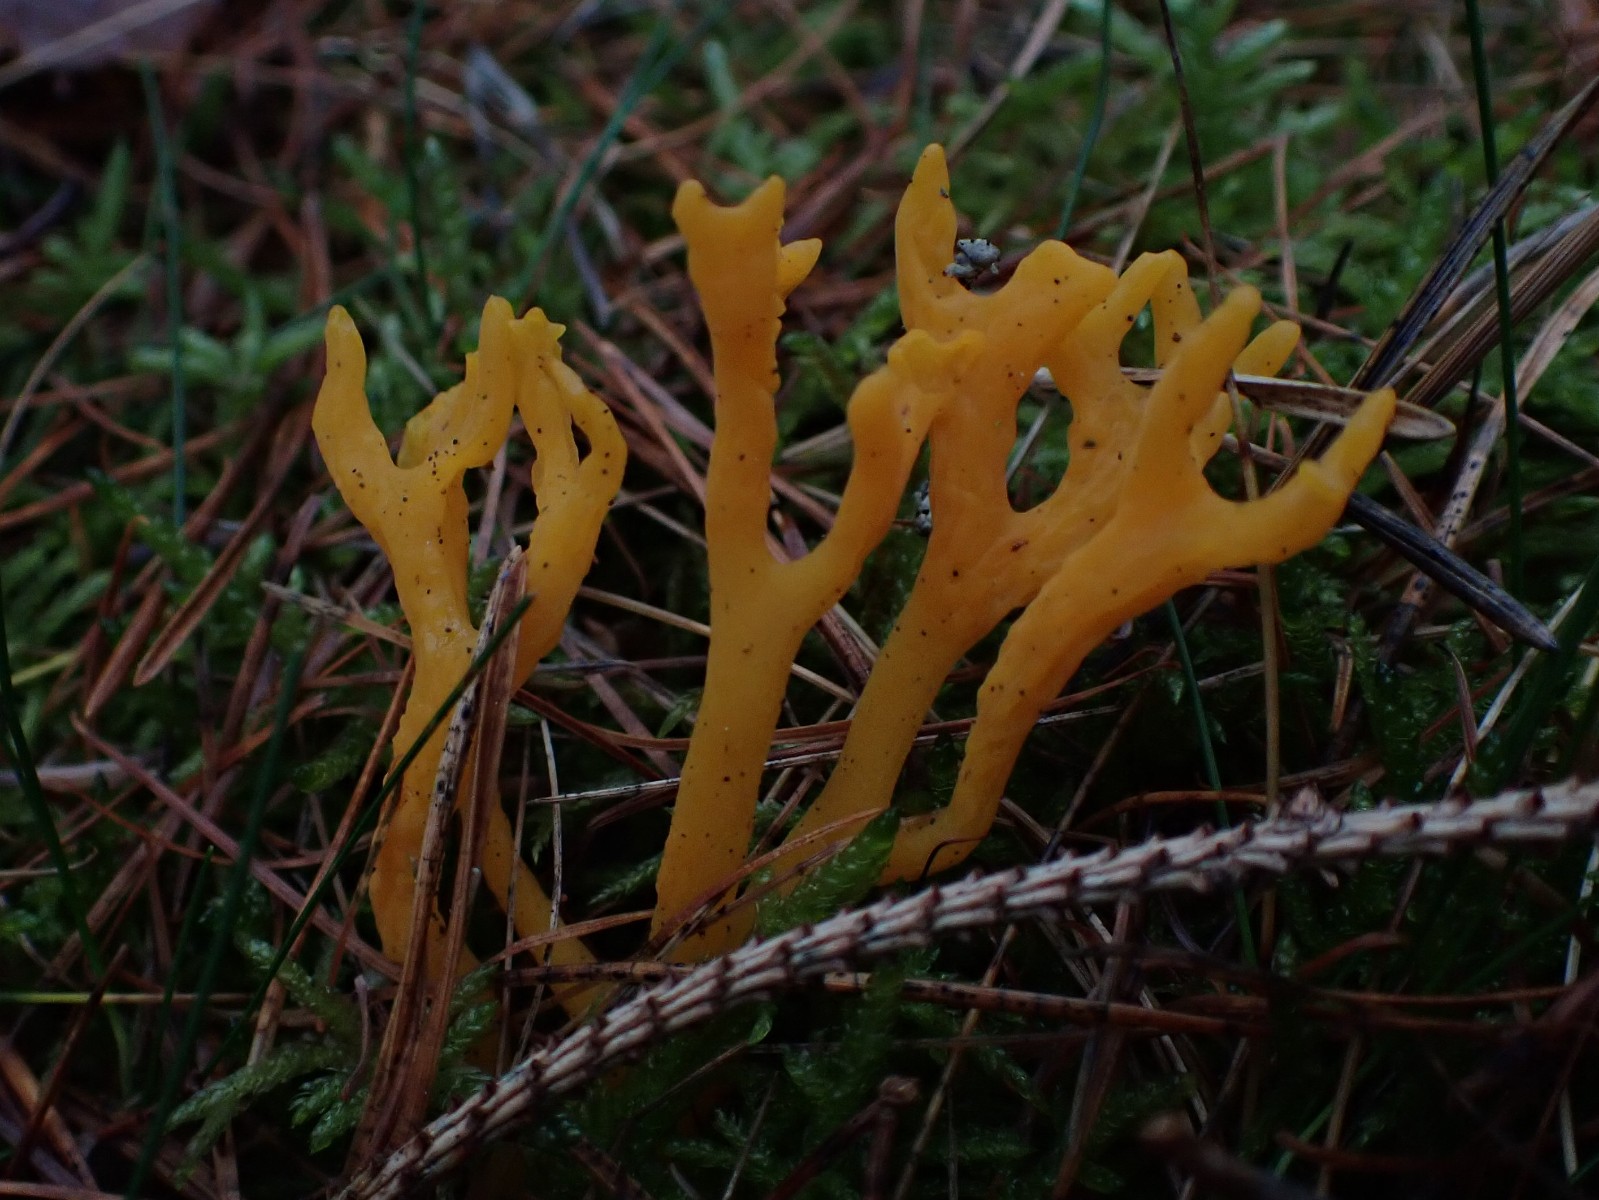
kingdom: Fungi
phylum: Basidiomycota
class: Dacrymycetes
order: Dacrymycetales
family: Dacrymycetaceae
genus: Calocera
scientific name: Calocera viscosa
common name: almindelig guldgaffel
